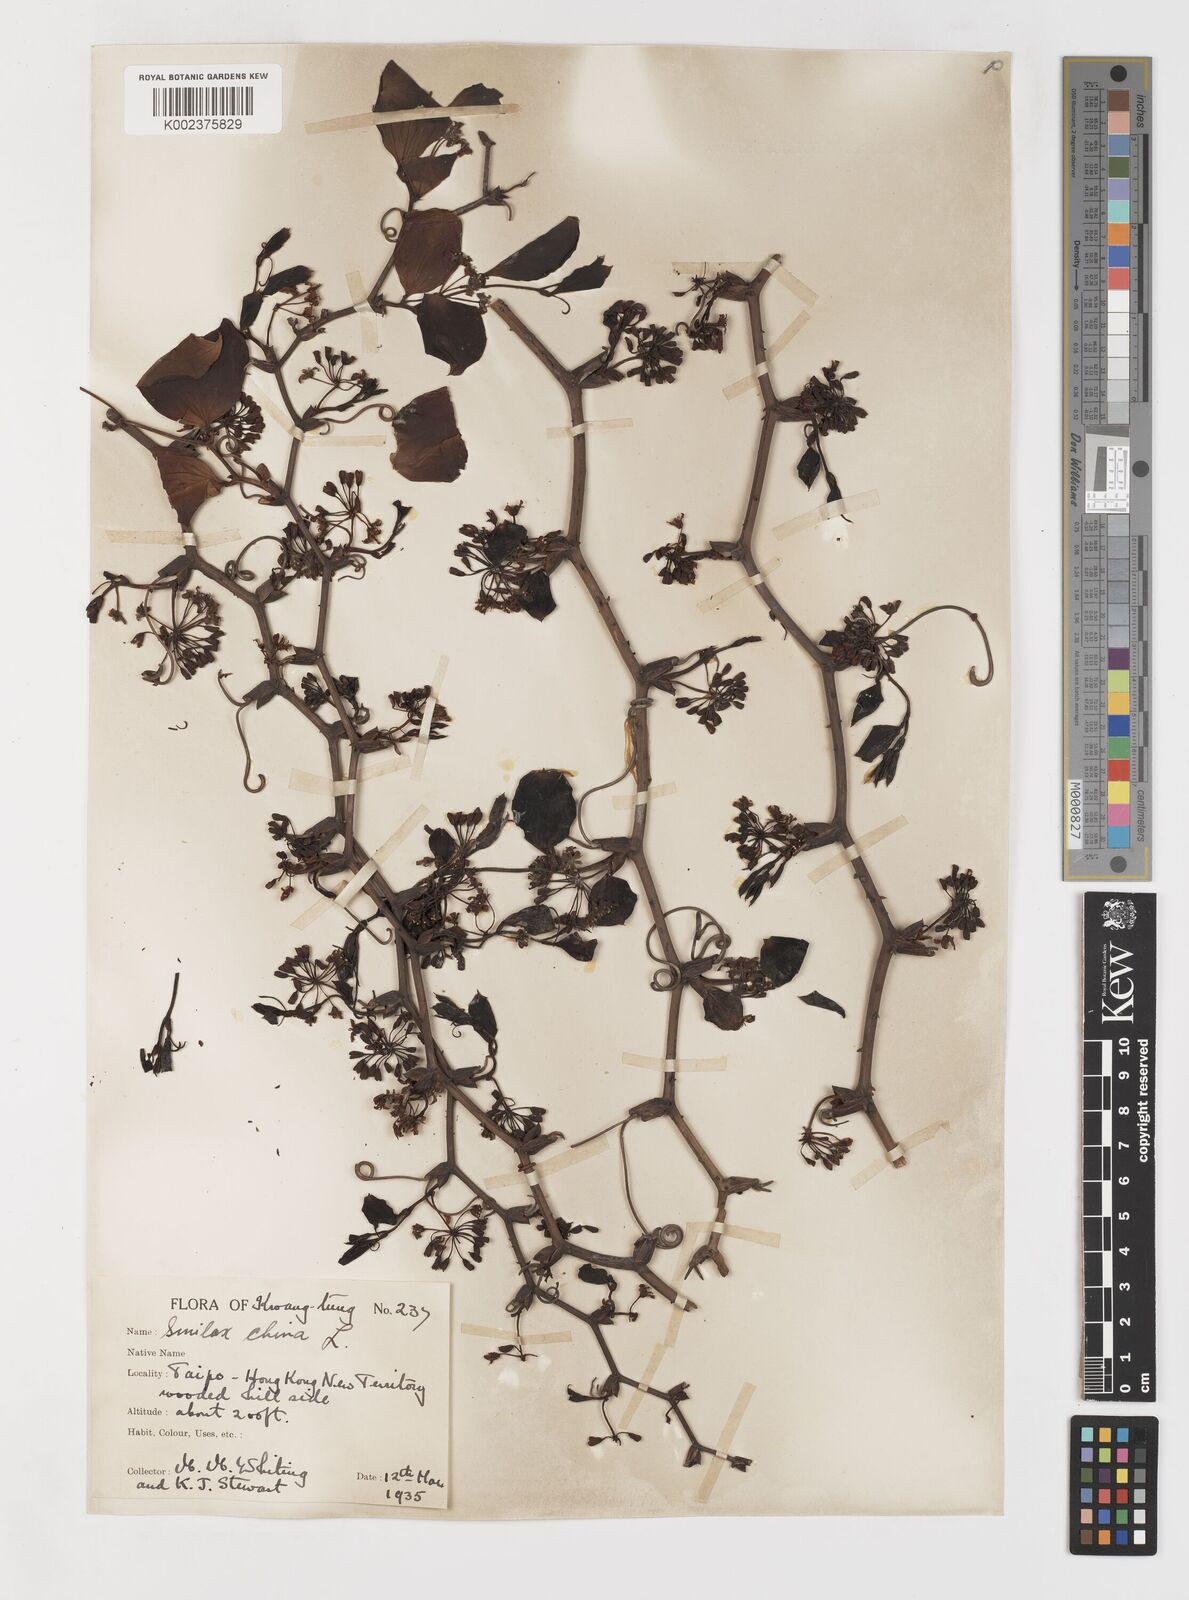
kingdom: Plantae
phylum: Tracheophyta
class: Liliopsida
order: Liliales
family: Smilacaceae
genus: Smilax
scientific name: Smilax china
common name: Chinaroot
